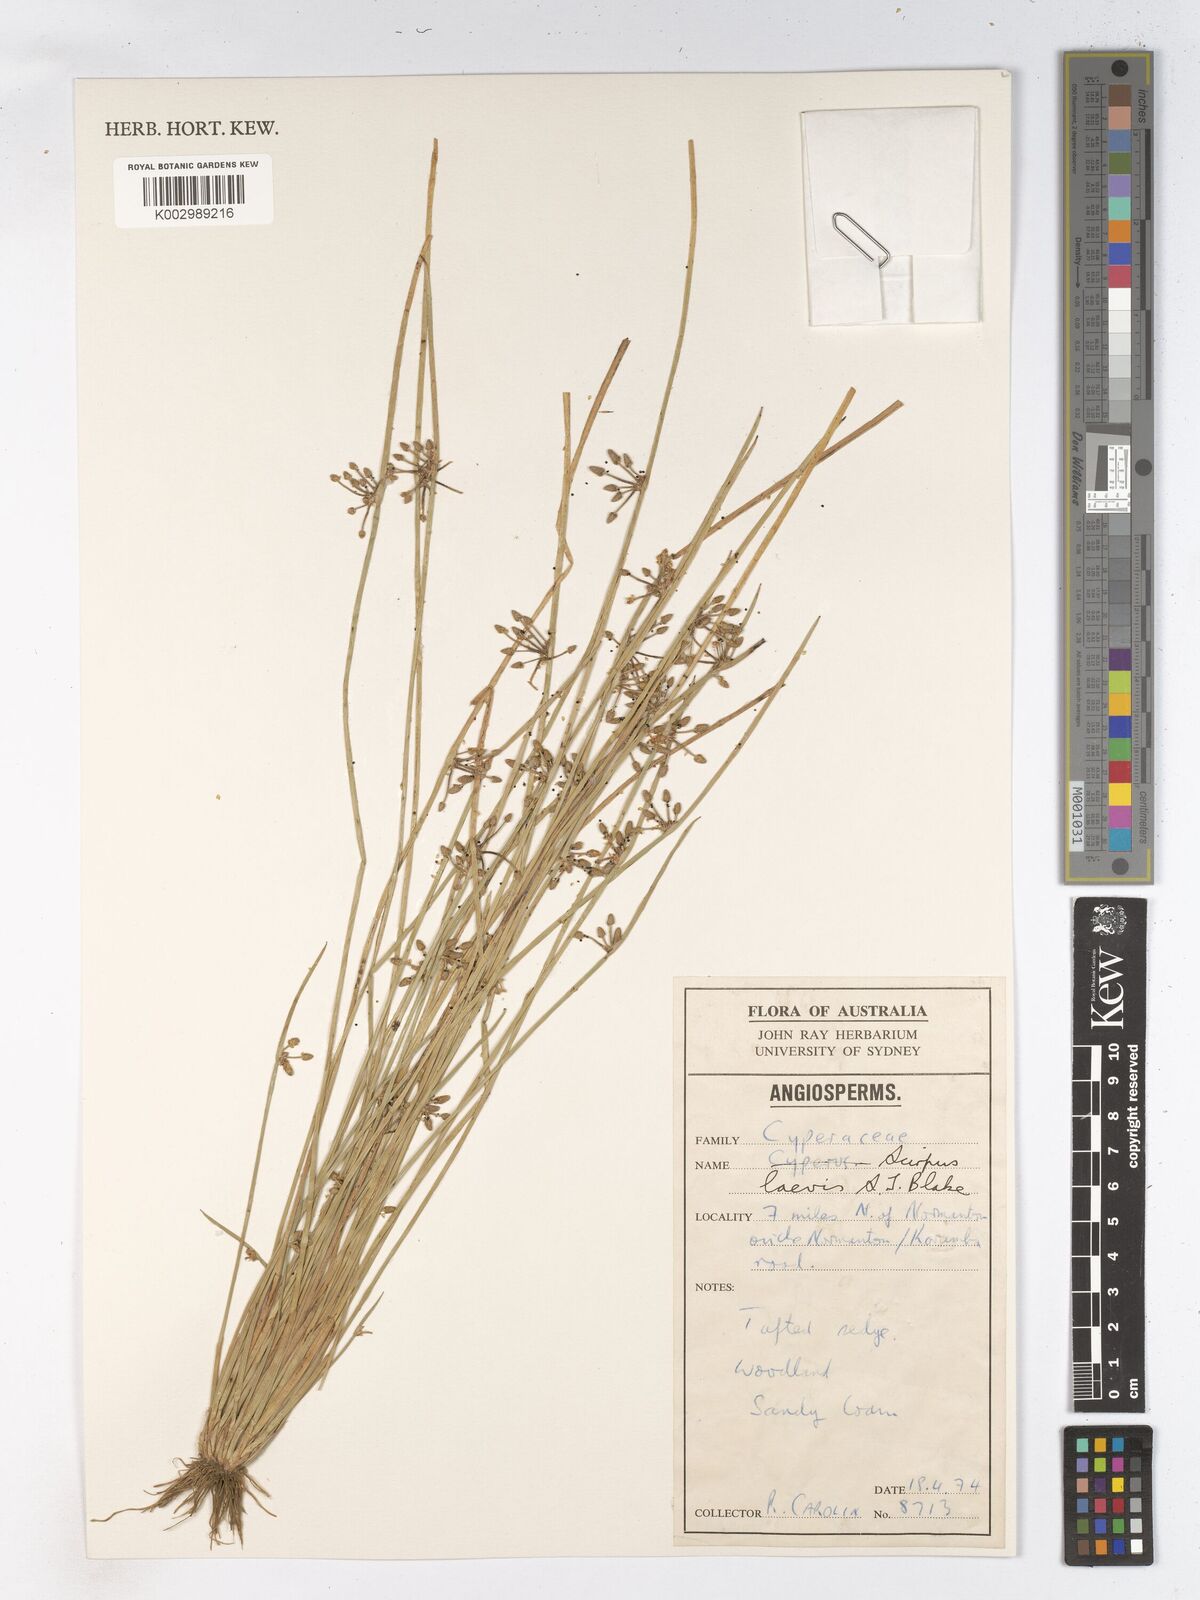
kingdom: Plantae
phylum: Tracheophyta
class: Liliopsida
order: Poales
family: Cyperaceae
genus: Schoenoplectiella
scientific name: Schoenoplectiella laevis
